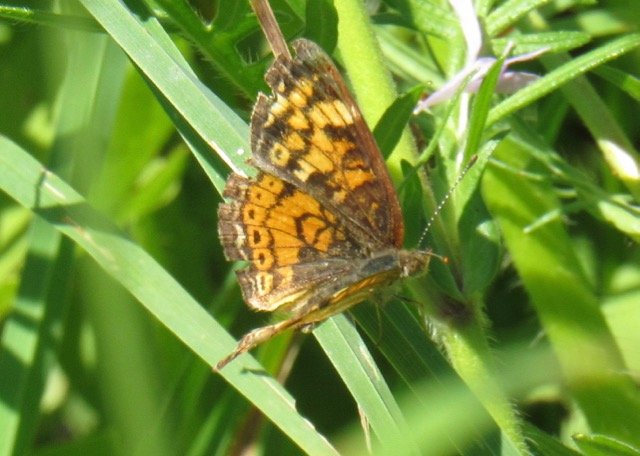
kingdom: Animalia
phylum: Arthropoda
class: Insecta
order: Lepidoptera
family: Nymphalidae
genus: Phyciodes
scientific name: Phyciodes tharos
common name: Pearl Crescent
